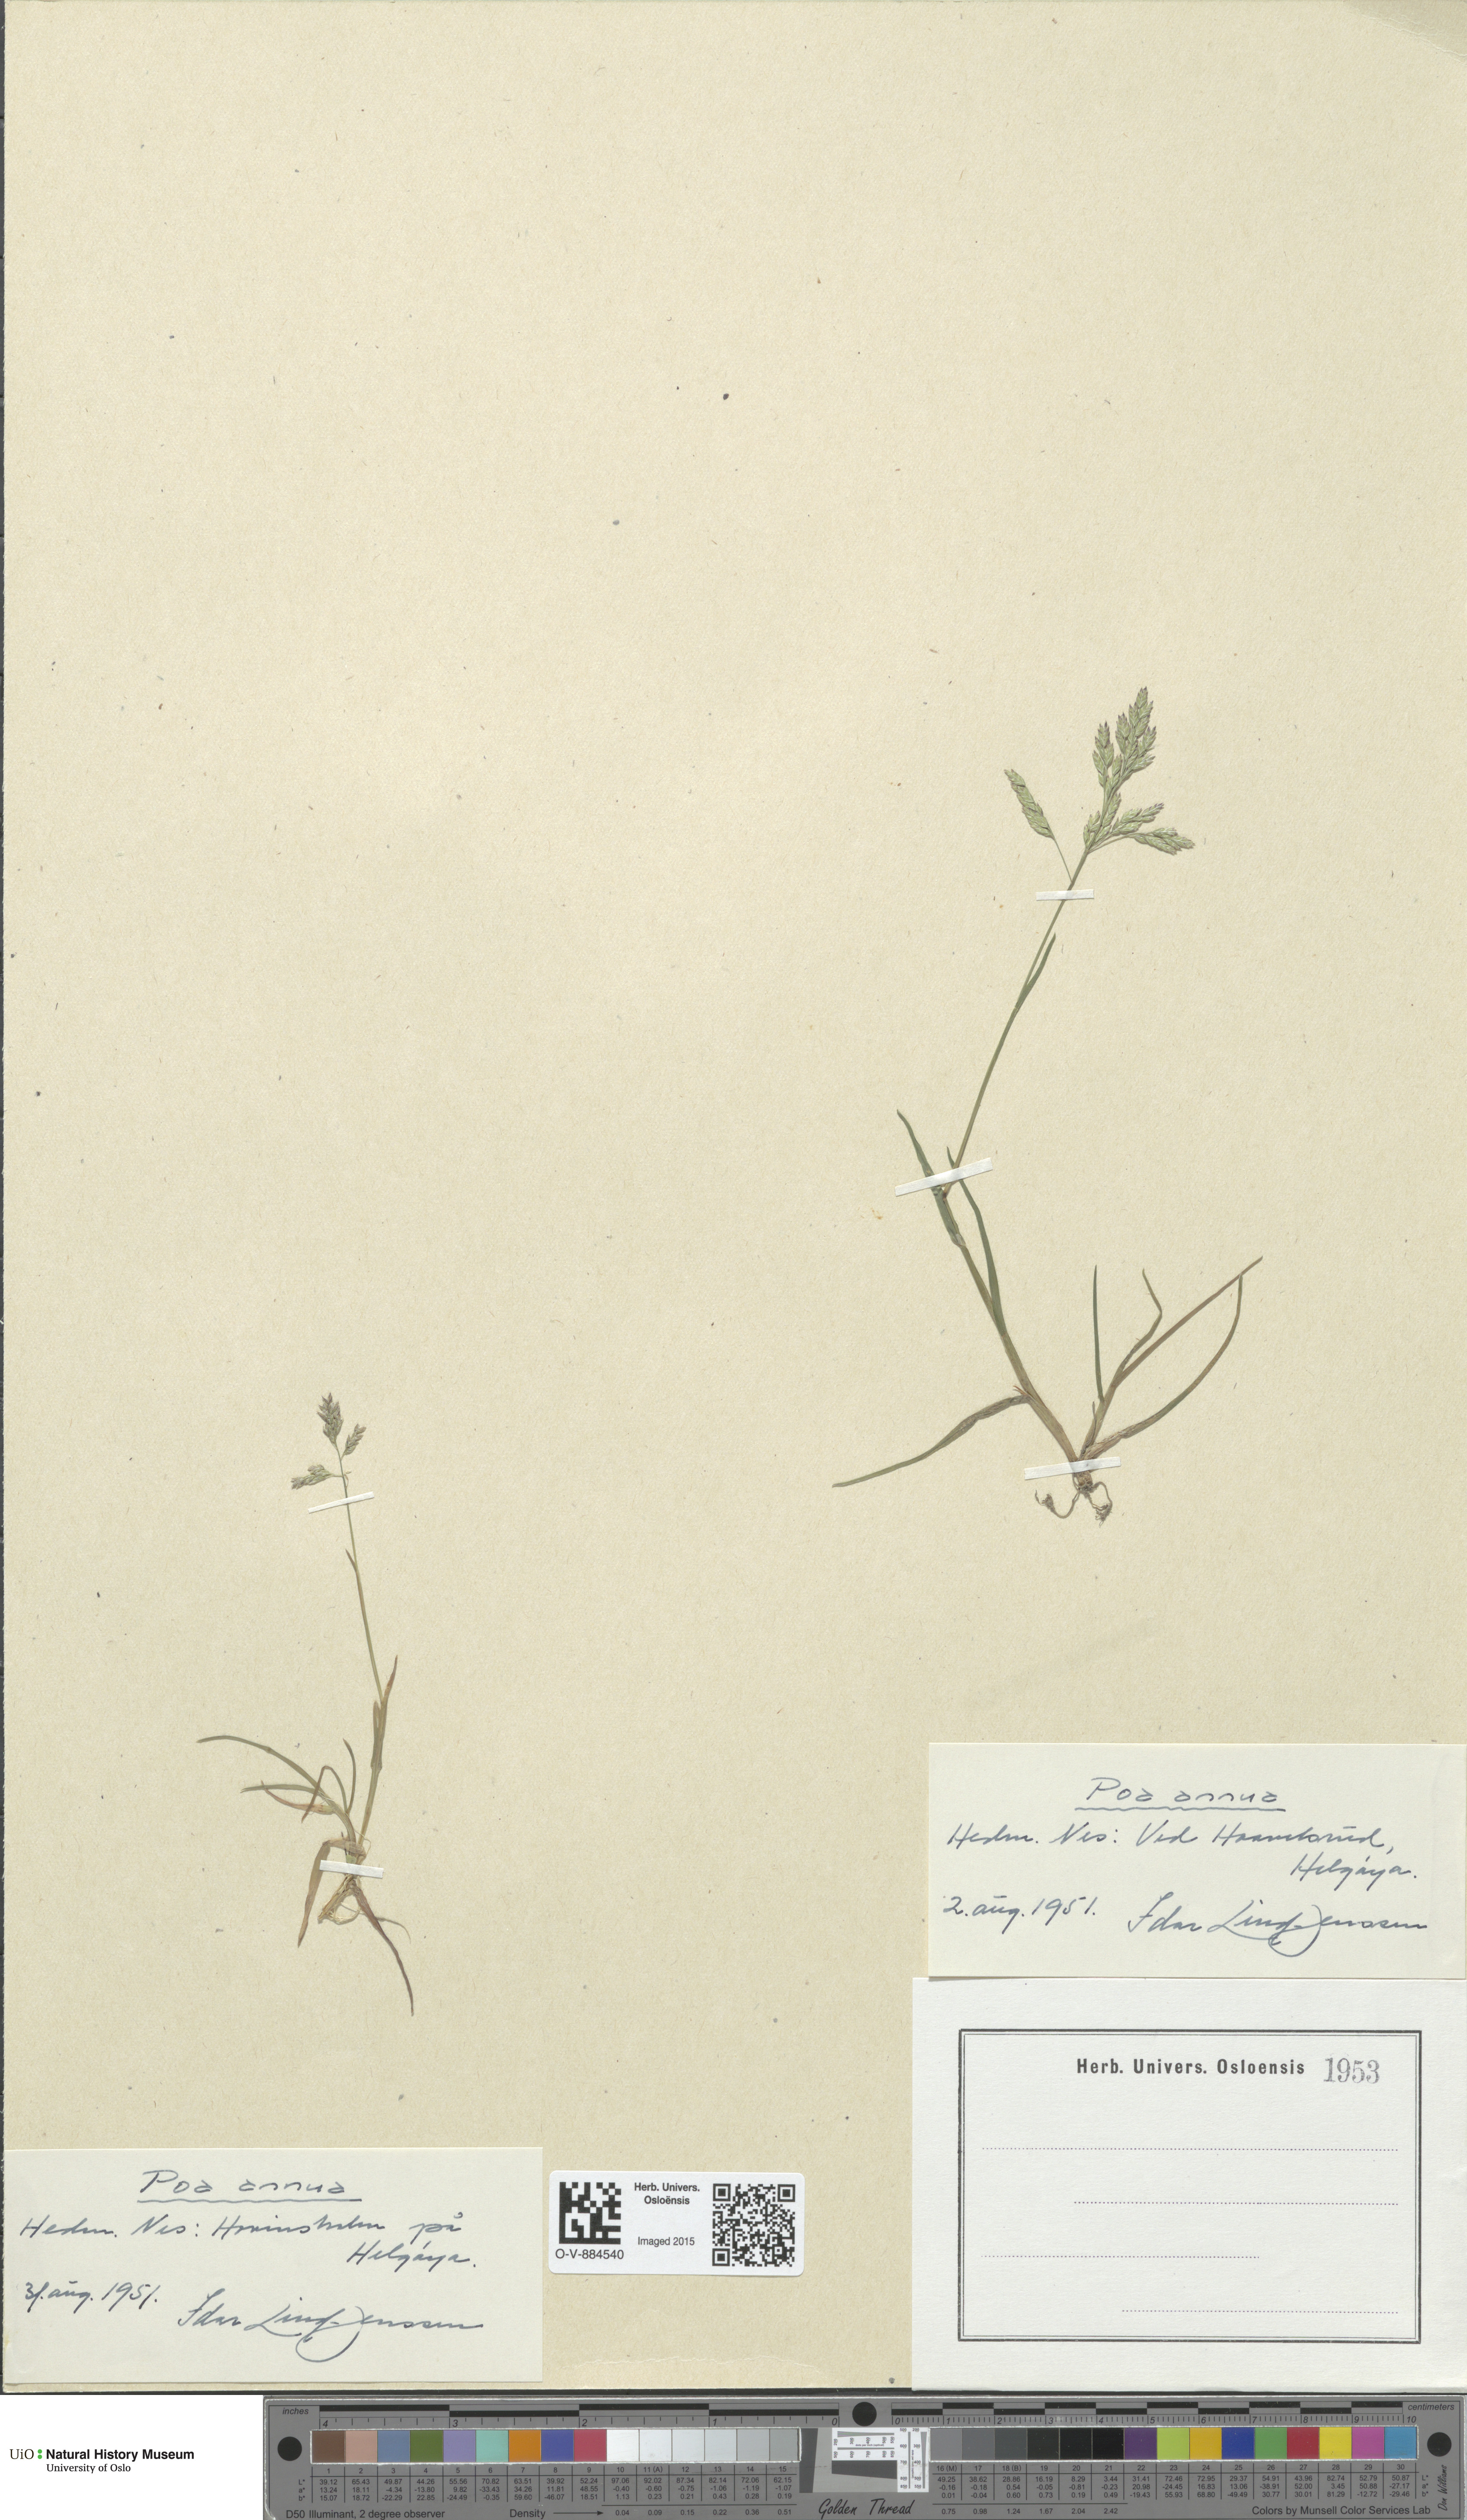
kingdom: Plantae
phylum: Tracheophyta
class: Liliopsida
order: Poales
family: Poaceae
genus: Poa
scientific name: Poa annua
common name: Annual bluegrass
